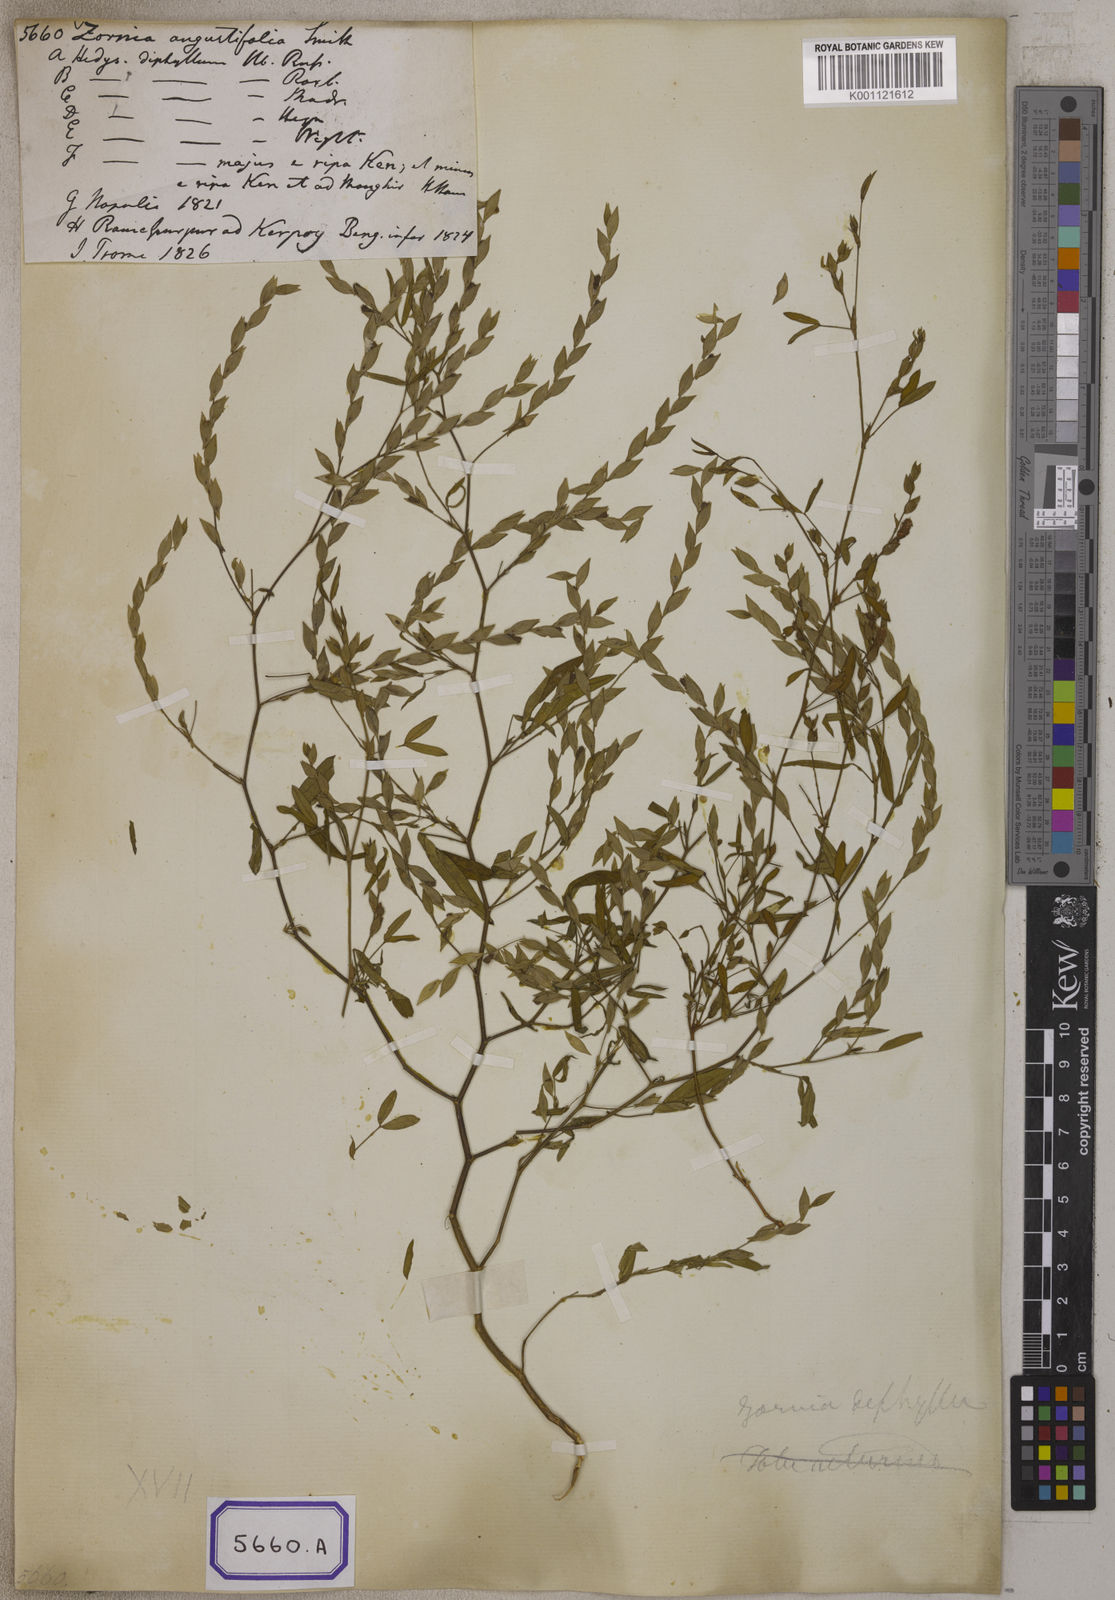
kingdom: Plantae
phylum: Tracheophyta
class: Magnoliopsida
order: Fabales
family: Fabaceae
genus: Zornia
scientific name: Zornia gibbosa
